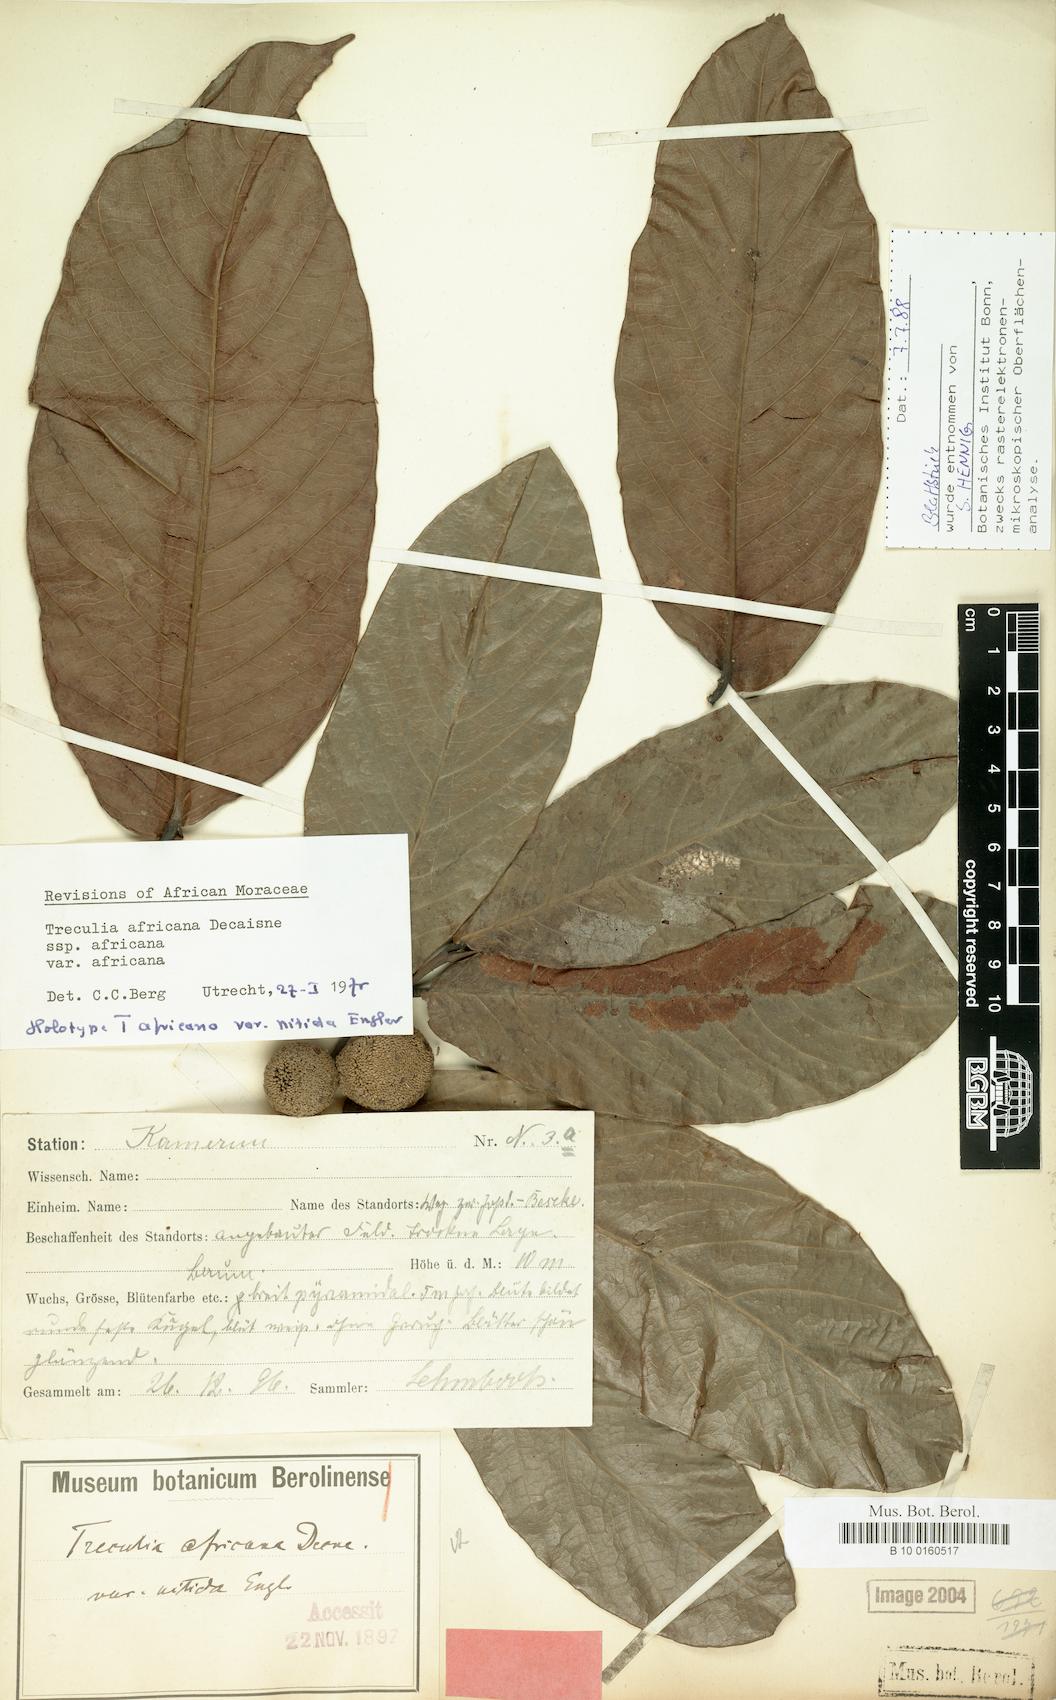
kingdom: Plantae
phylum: Tracheophyta
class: Magnoliopsida
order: Rosales
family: Moraceae
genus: Treculia
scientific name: Treculia africana
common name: African breadfruit
